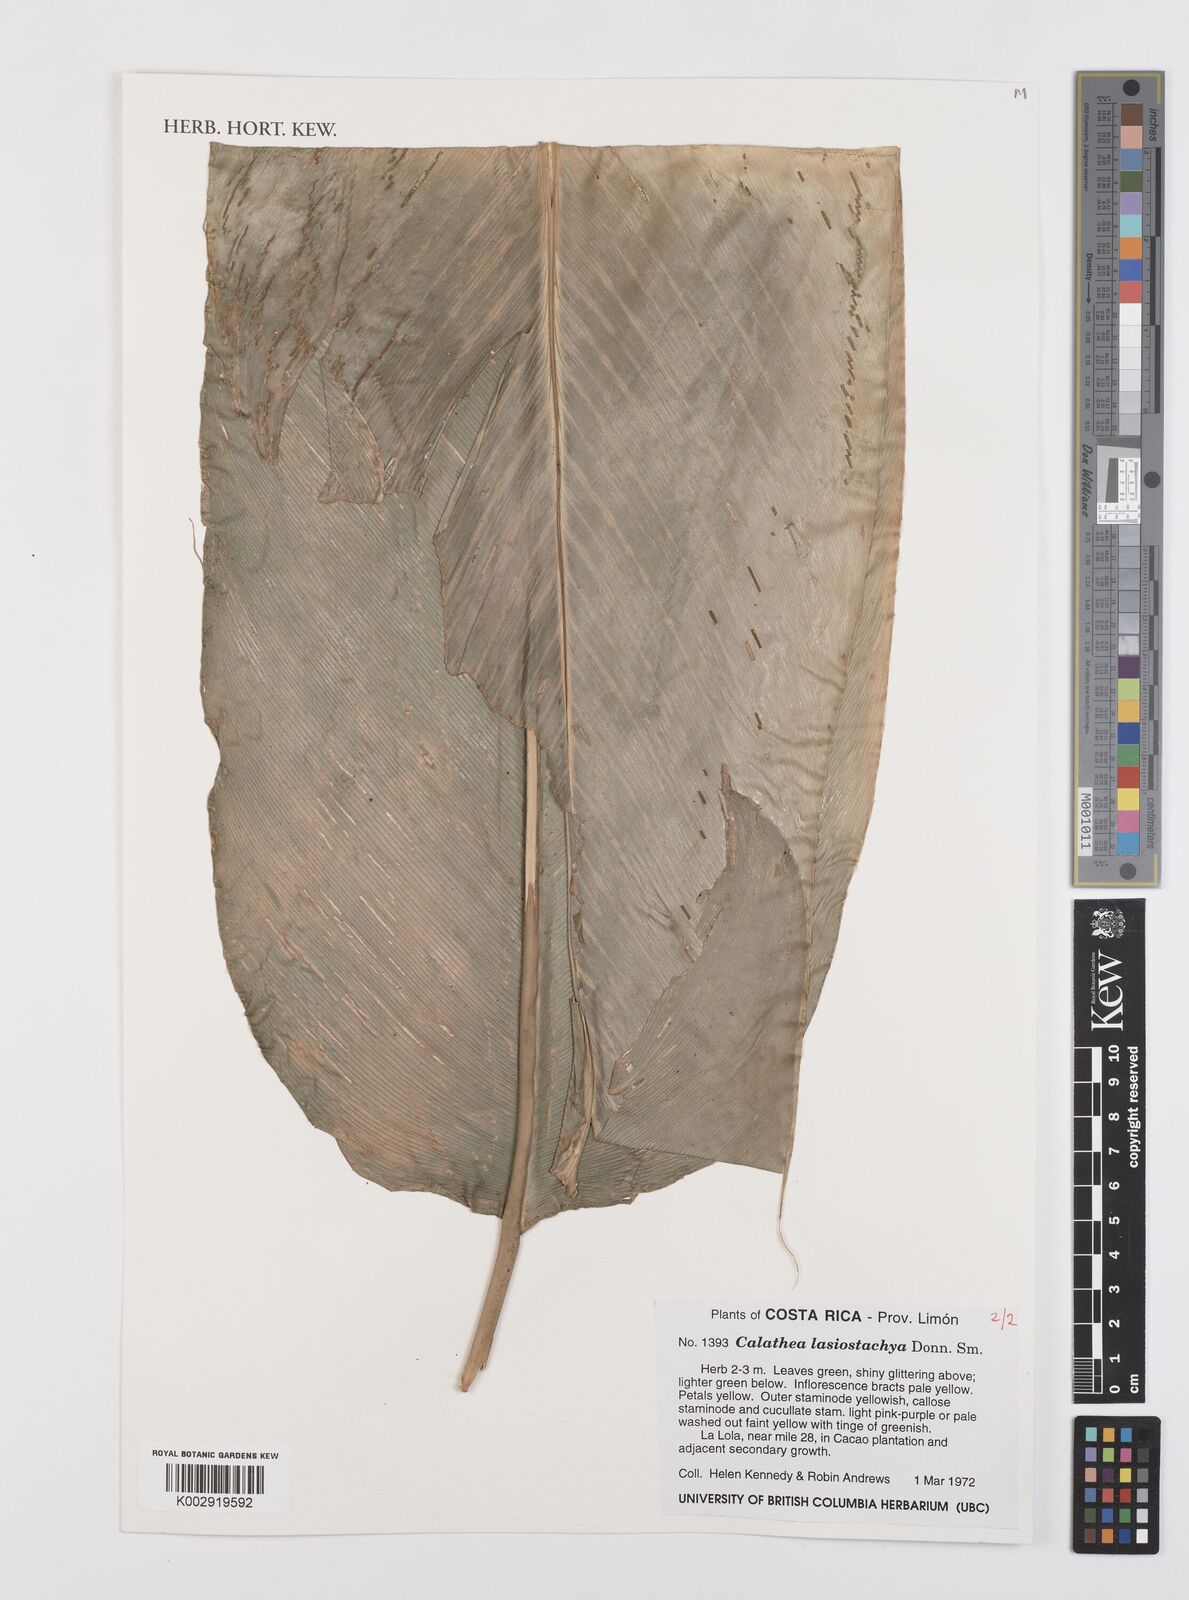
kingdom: Plantae
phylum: Tracheophyta
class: Liliopsida
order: Zingiberales
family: Marantaceae
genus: Calathea
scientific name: Calathea lasiostachya
